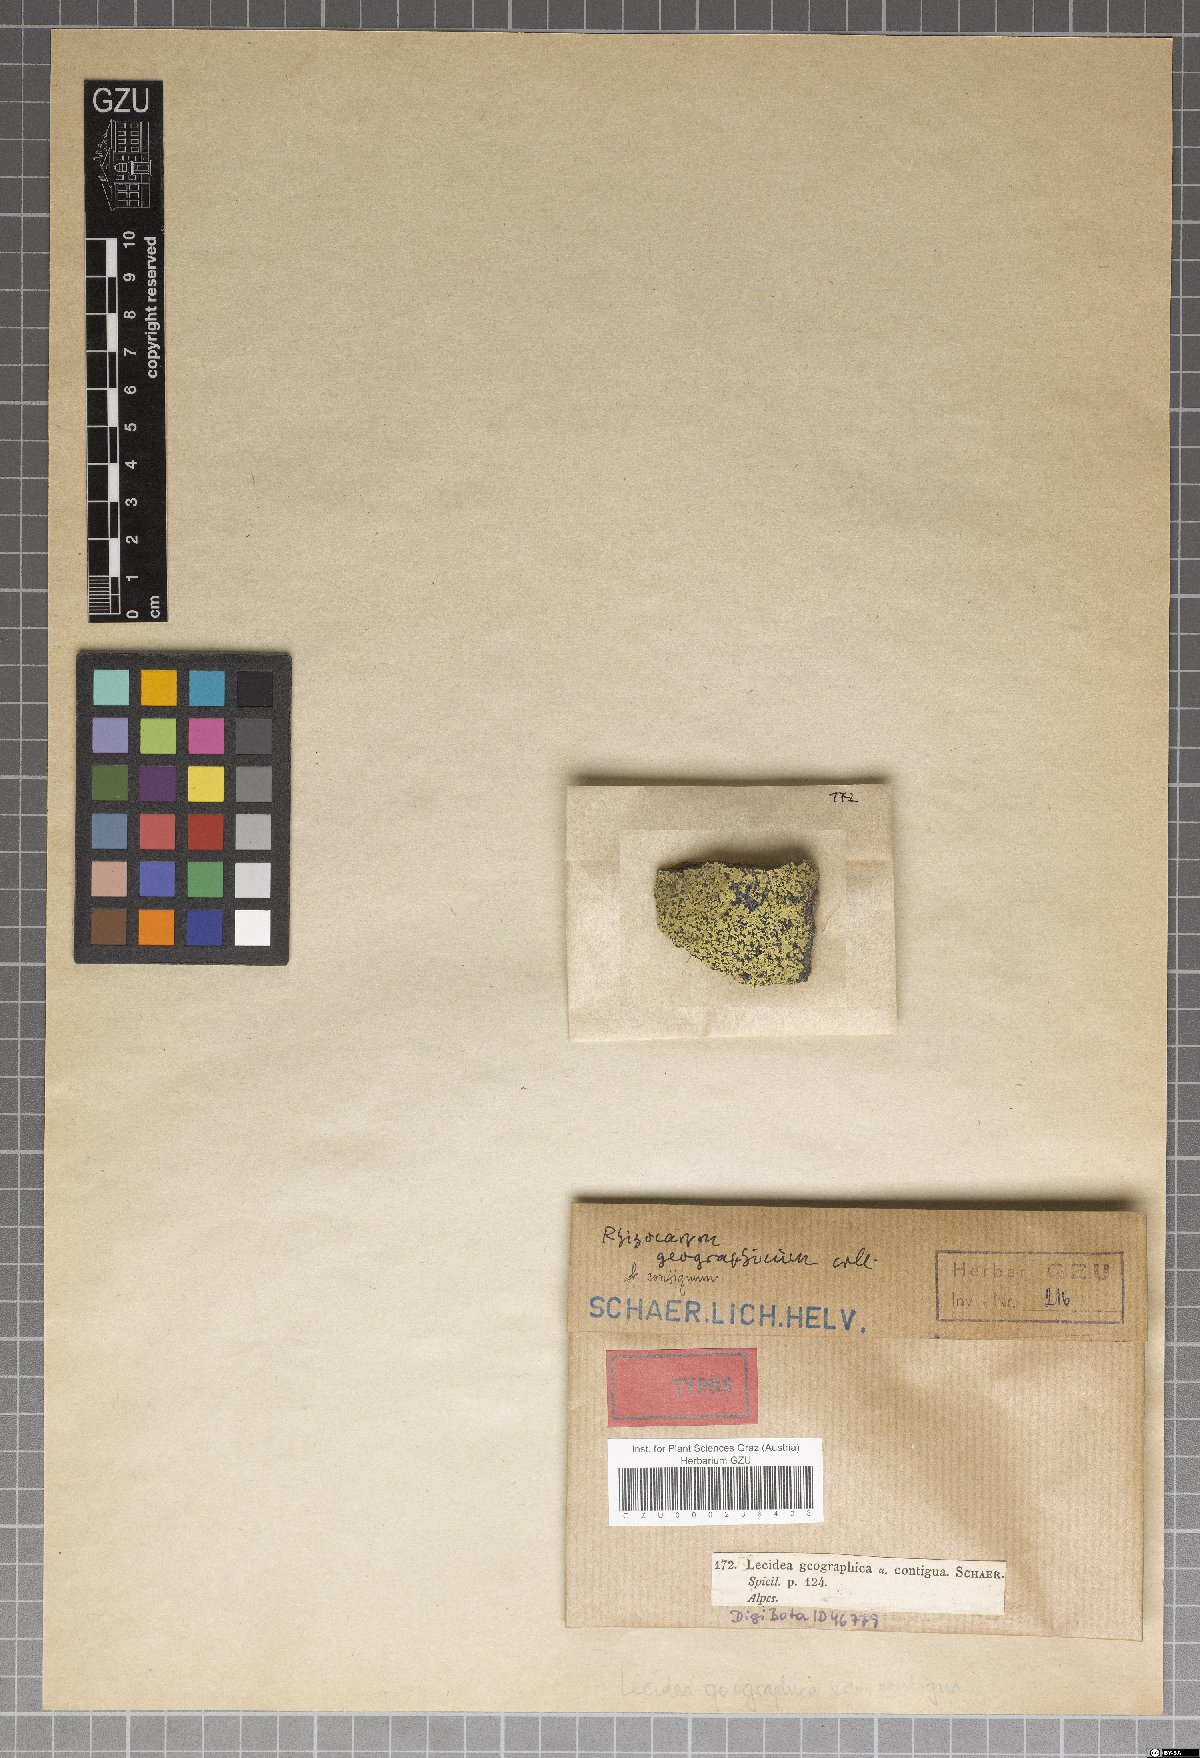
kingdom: Fungi
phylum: Ascomycota
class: Lecanoromycetes
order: Rhizocarpales
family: Rhizocarpaceae
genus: Rhizocarpon
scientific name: Rhizocarpon geographicum
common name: Yellow map lichen
